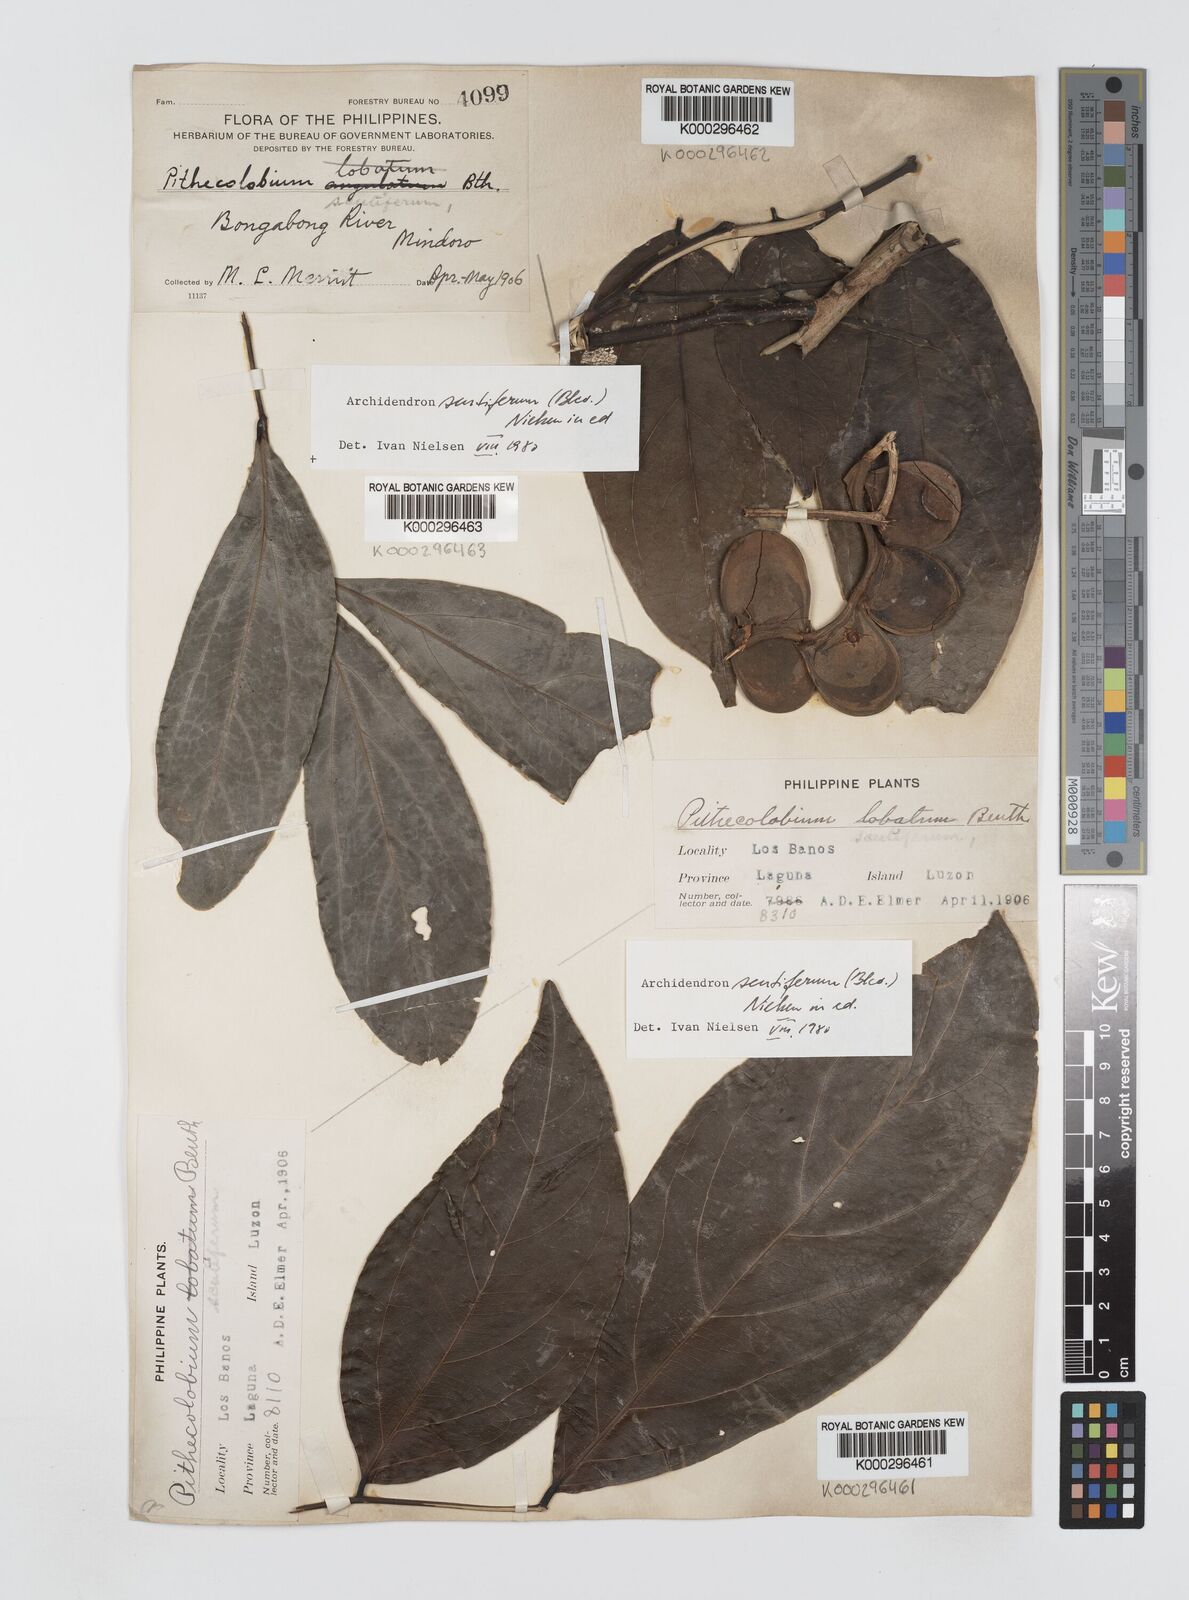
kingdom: Plantae
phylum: Tracheophyta
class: Magnoliopsida
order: Fabales
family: Fabaceae
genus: Archidendron
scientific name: Archidendron scutiferum
